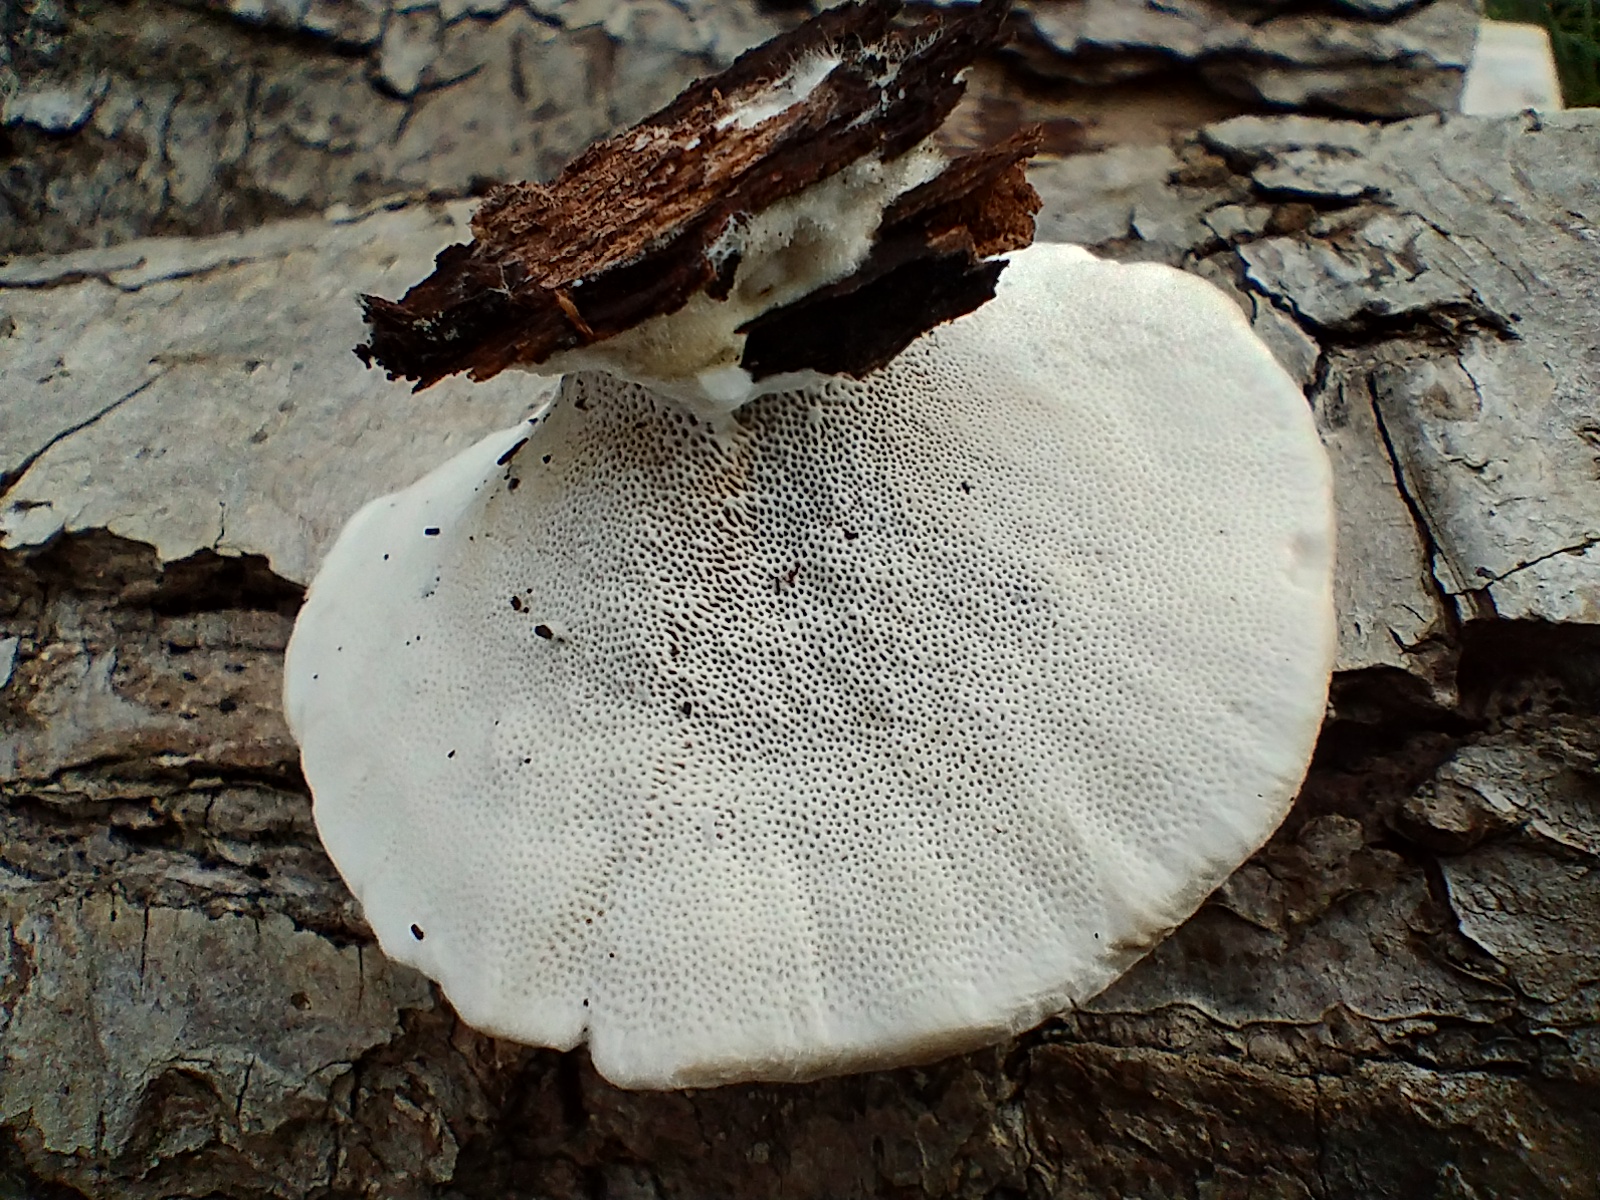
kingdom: Fungi
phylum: Basidiomycota
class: Agaricomycetes
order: Polyporales
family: Polyporaceae
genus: Trametes
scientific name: Trametes hirsuta
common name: håret læderporesvamp
